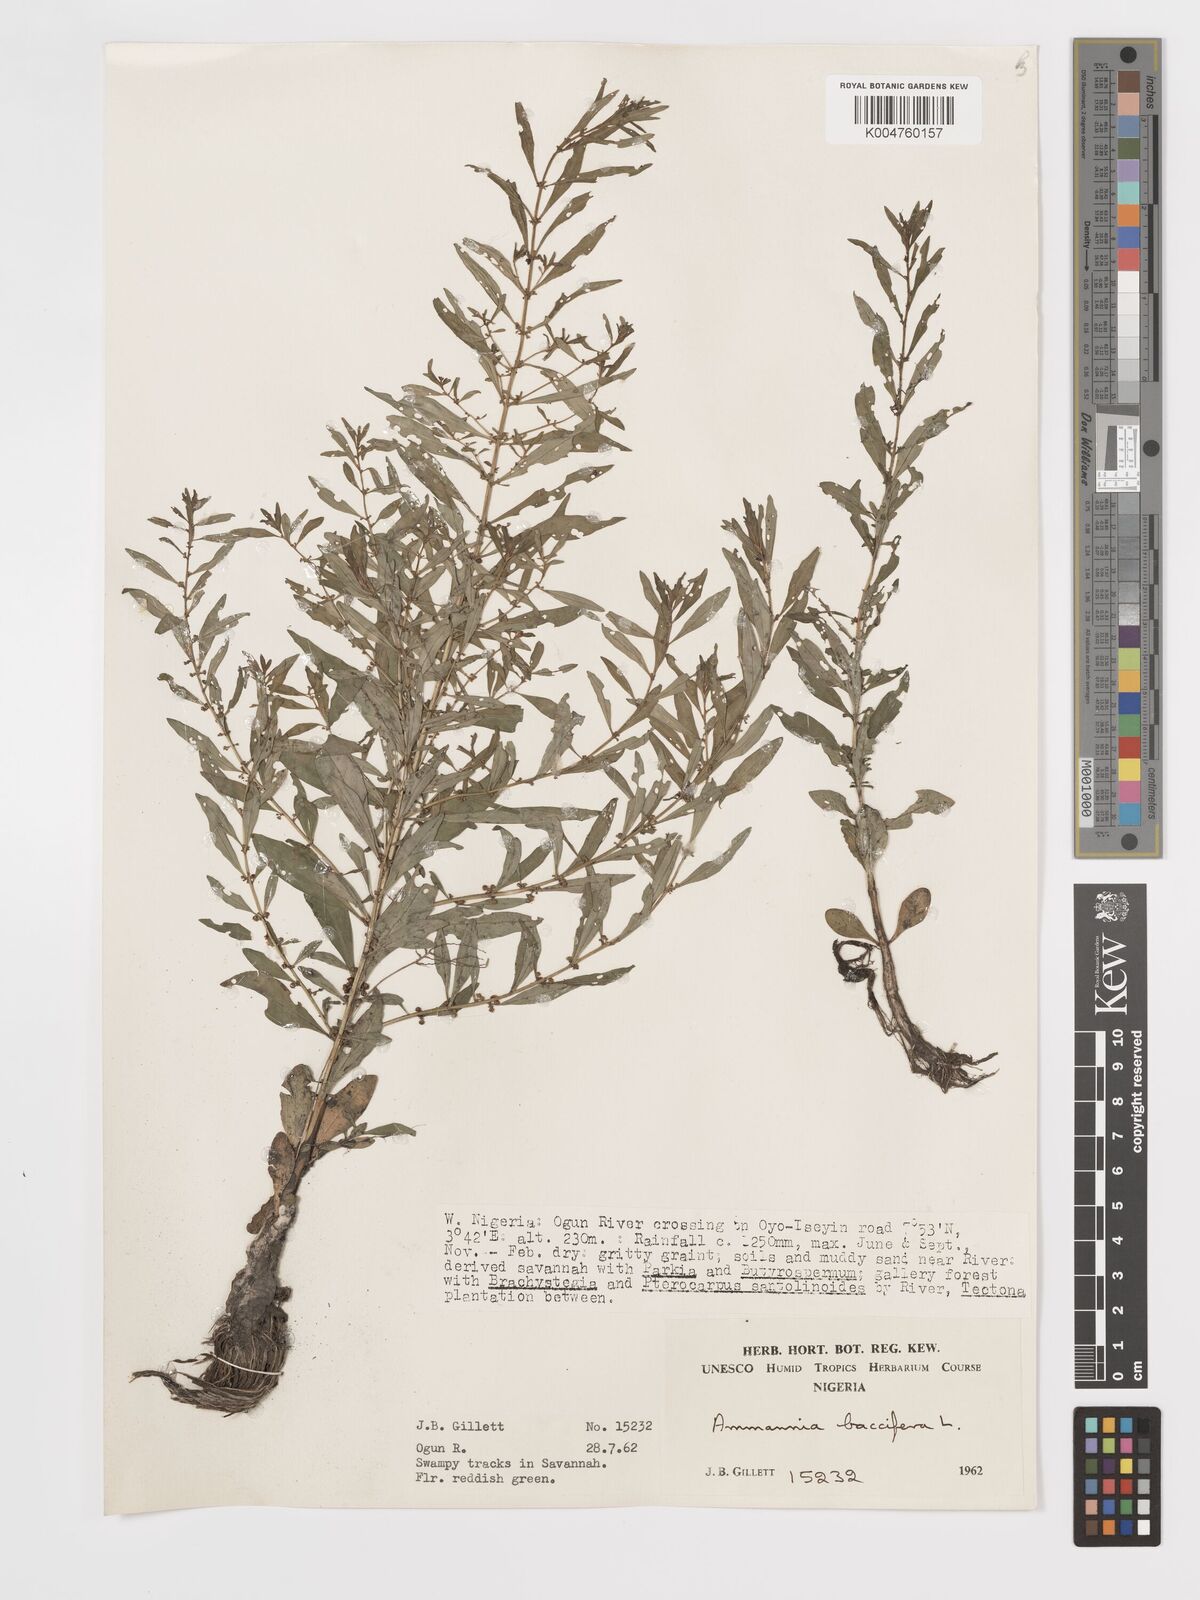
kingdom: Plantae
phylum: Tracheophyta
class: Magnoliopsida
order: Myrtales
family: Lythraceae
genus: Ammannia
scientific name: Ammannia
